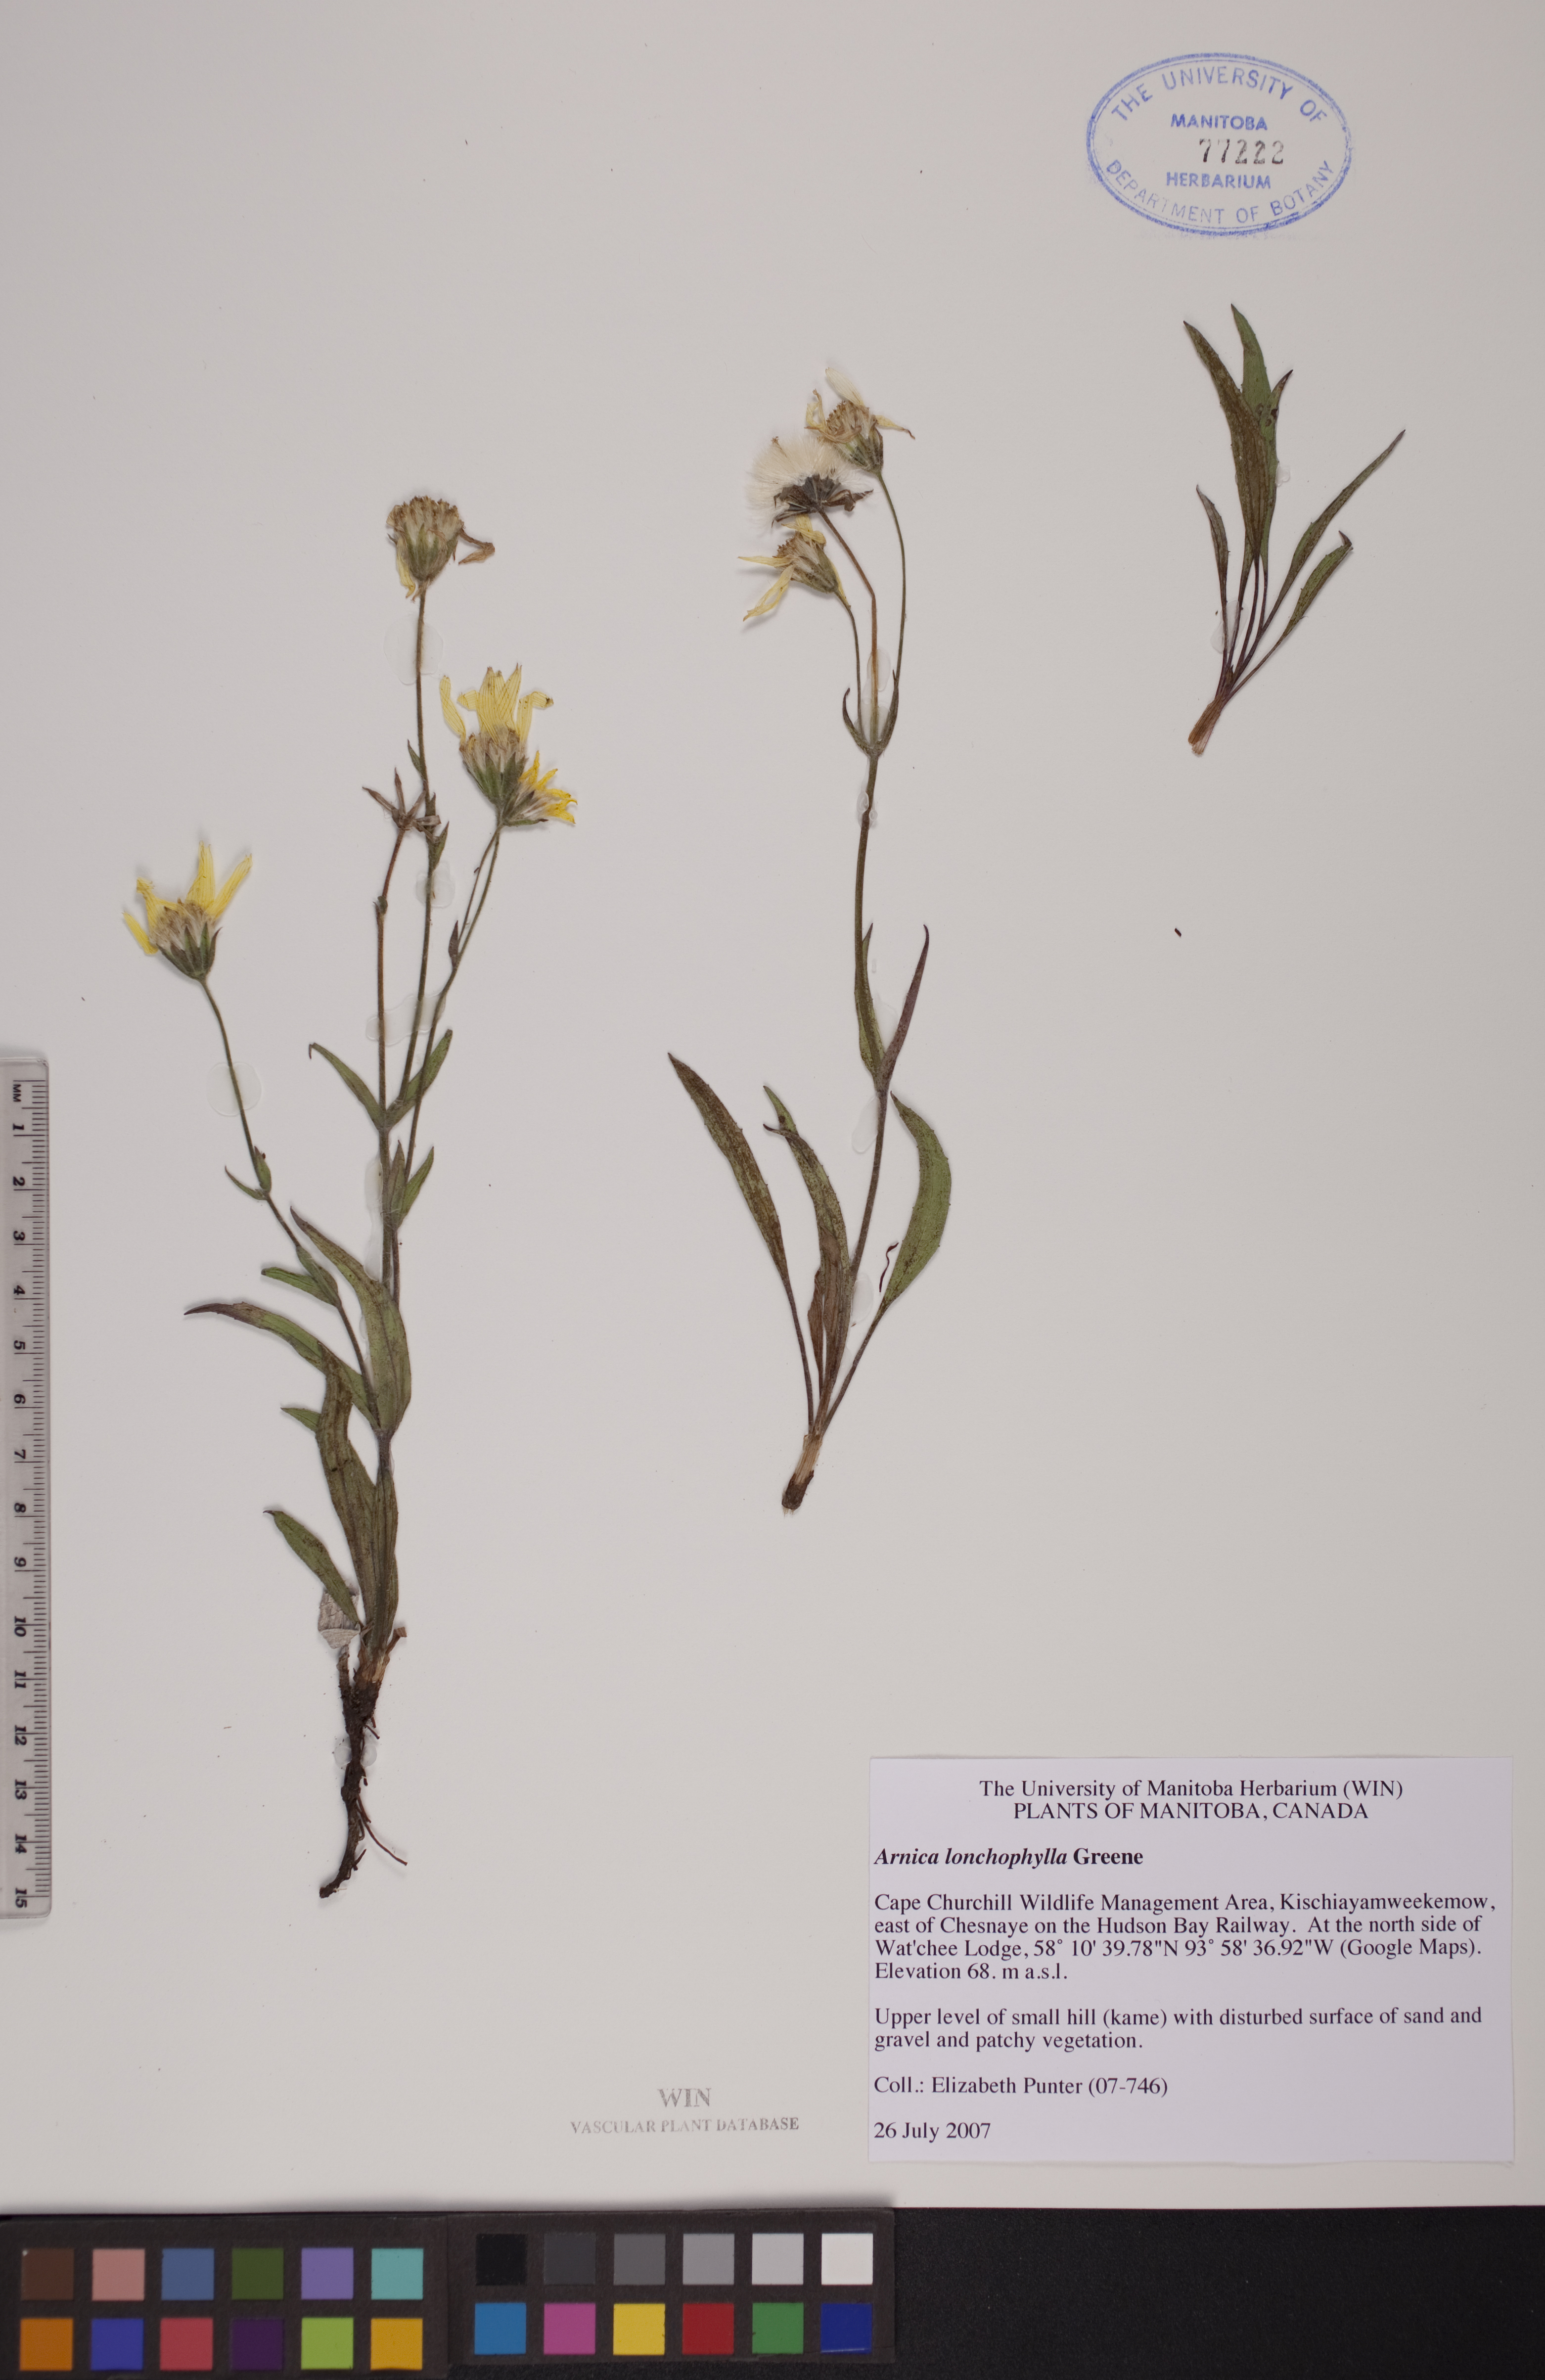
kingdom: Plantae
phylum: Tracheophyta
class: Magnoliopsida
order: Asterales
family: Asteraceae
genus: Arnica
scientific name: Arnica lonchophylla
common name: Northern arnica
